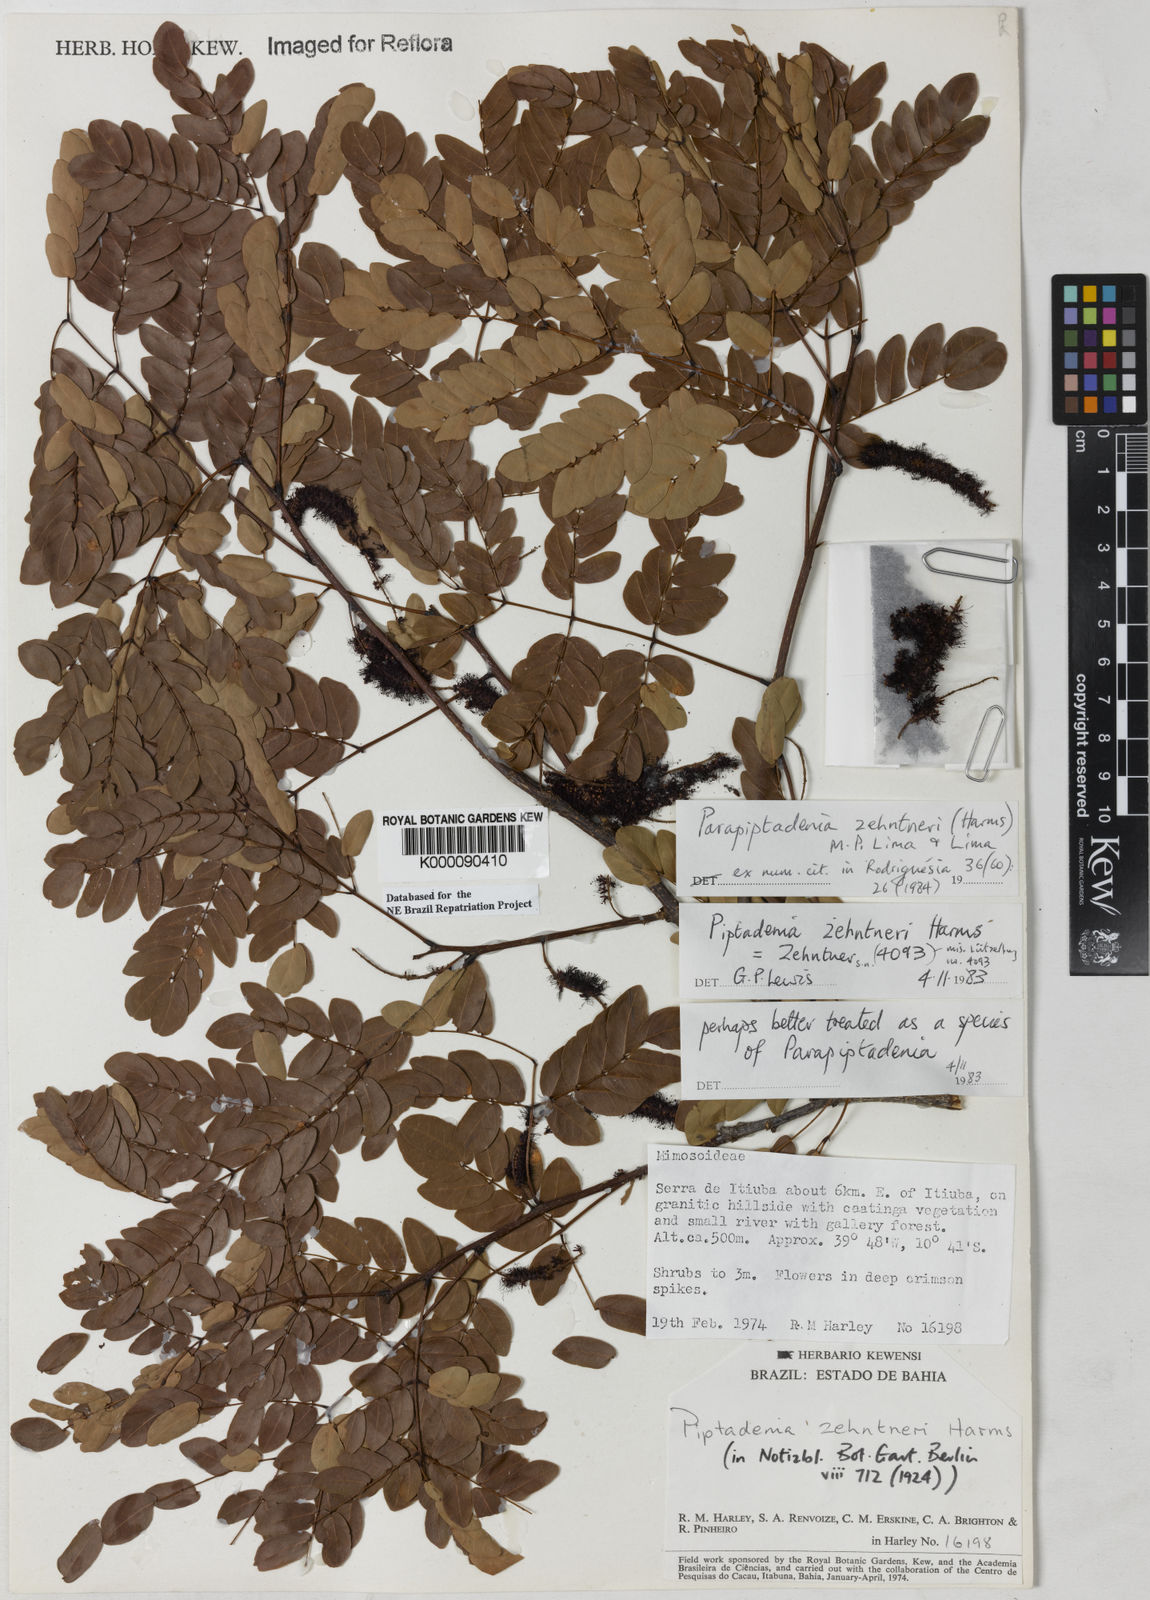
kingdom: Plantae
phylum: Tracheophyta
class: Magnoliopsida
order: Fabales
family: Fabaceae
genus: Parapiptadenia
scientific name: Parapiptadenia zehntneri
